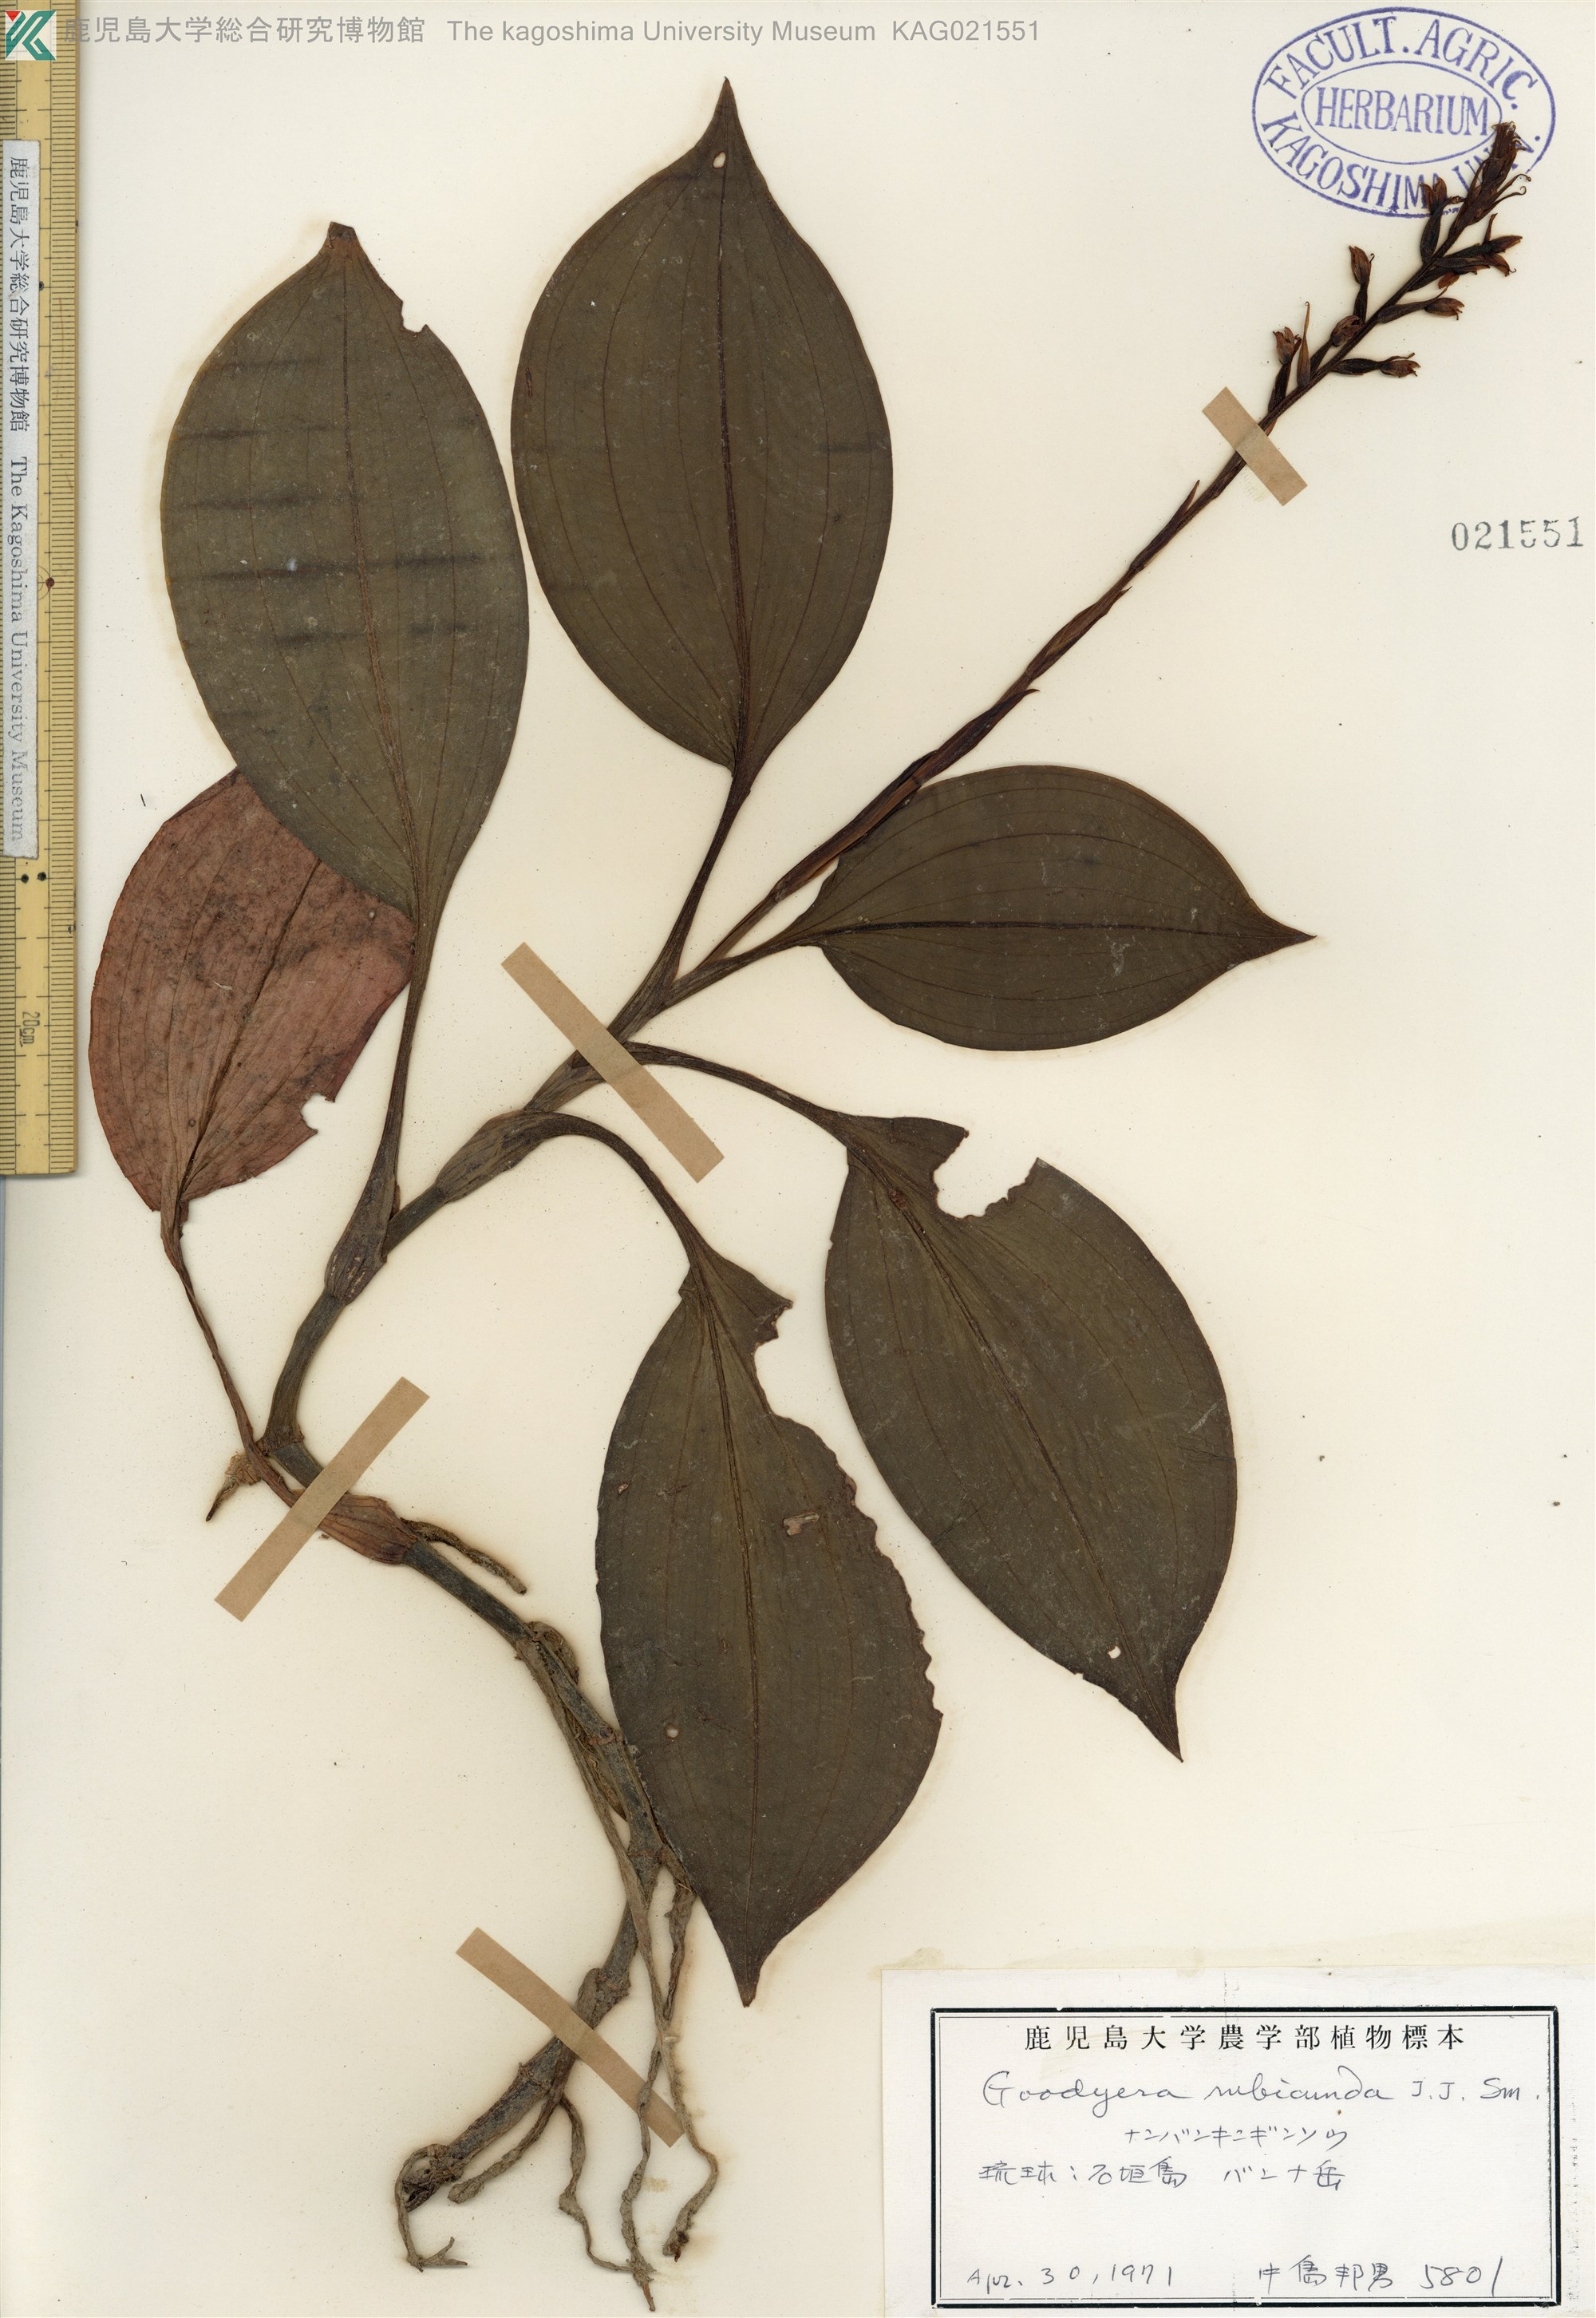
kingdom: Plantae
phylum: Tracheophyta
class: Liliopsida
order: Asparagales
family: Orchidaceae
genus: Goodyera
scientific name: Goodyera rubicunda
